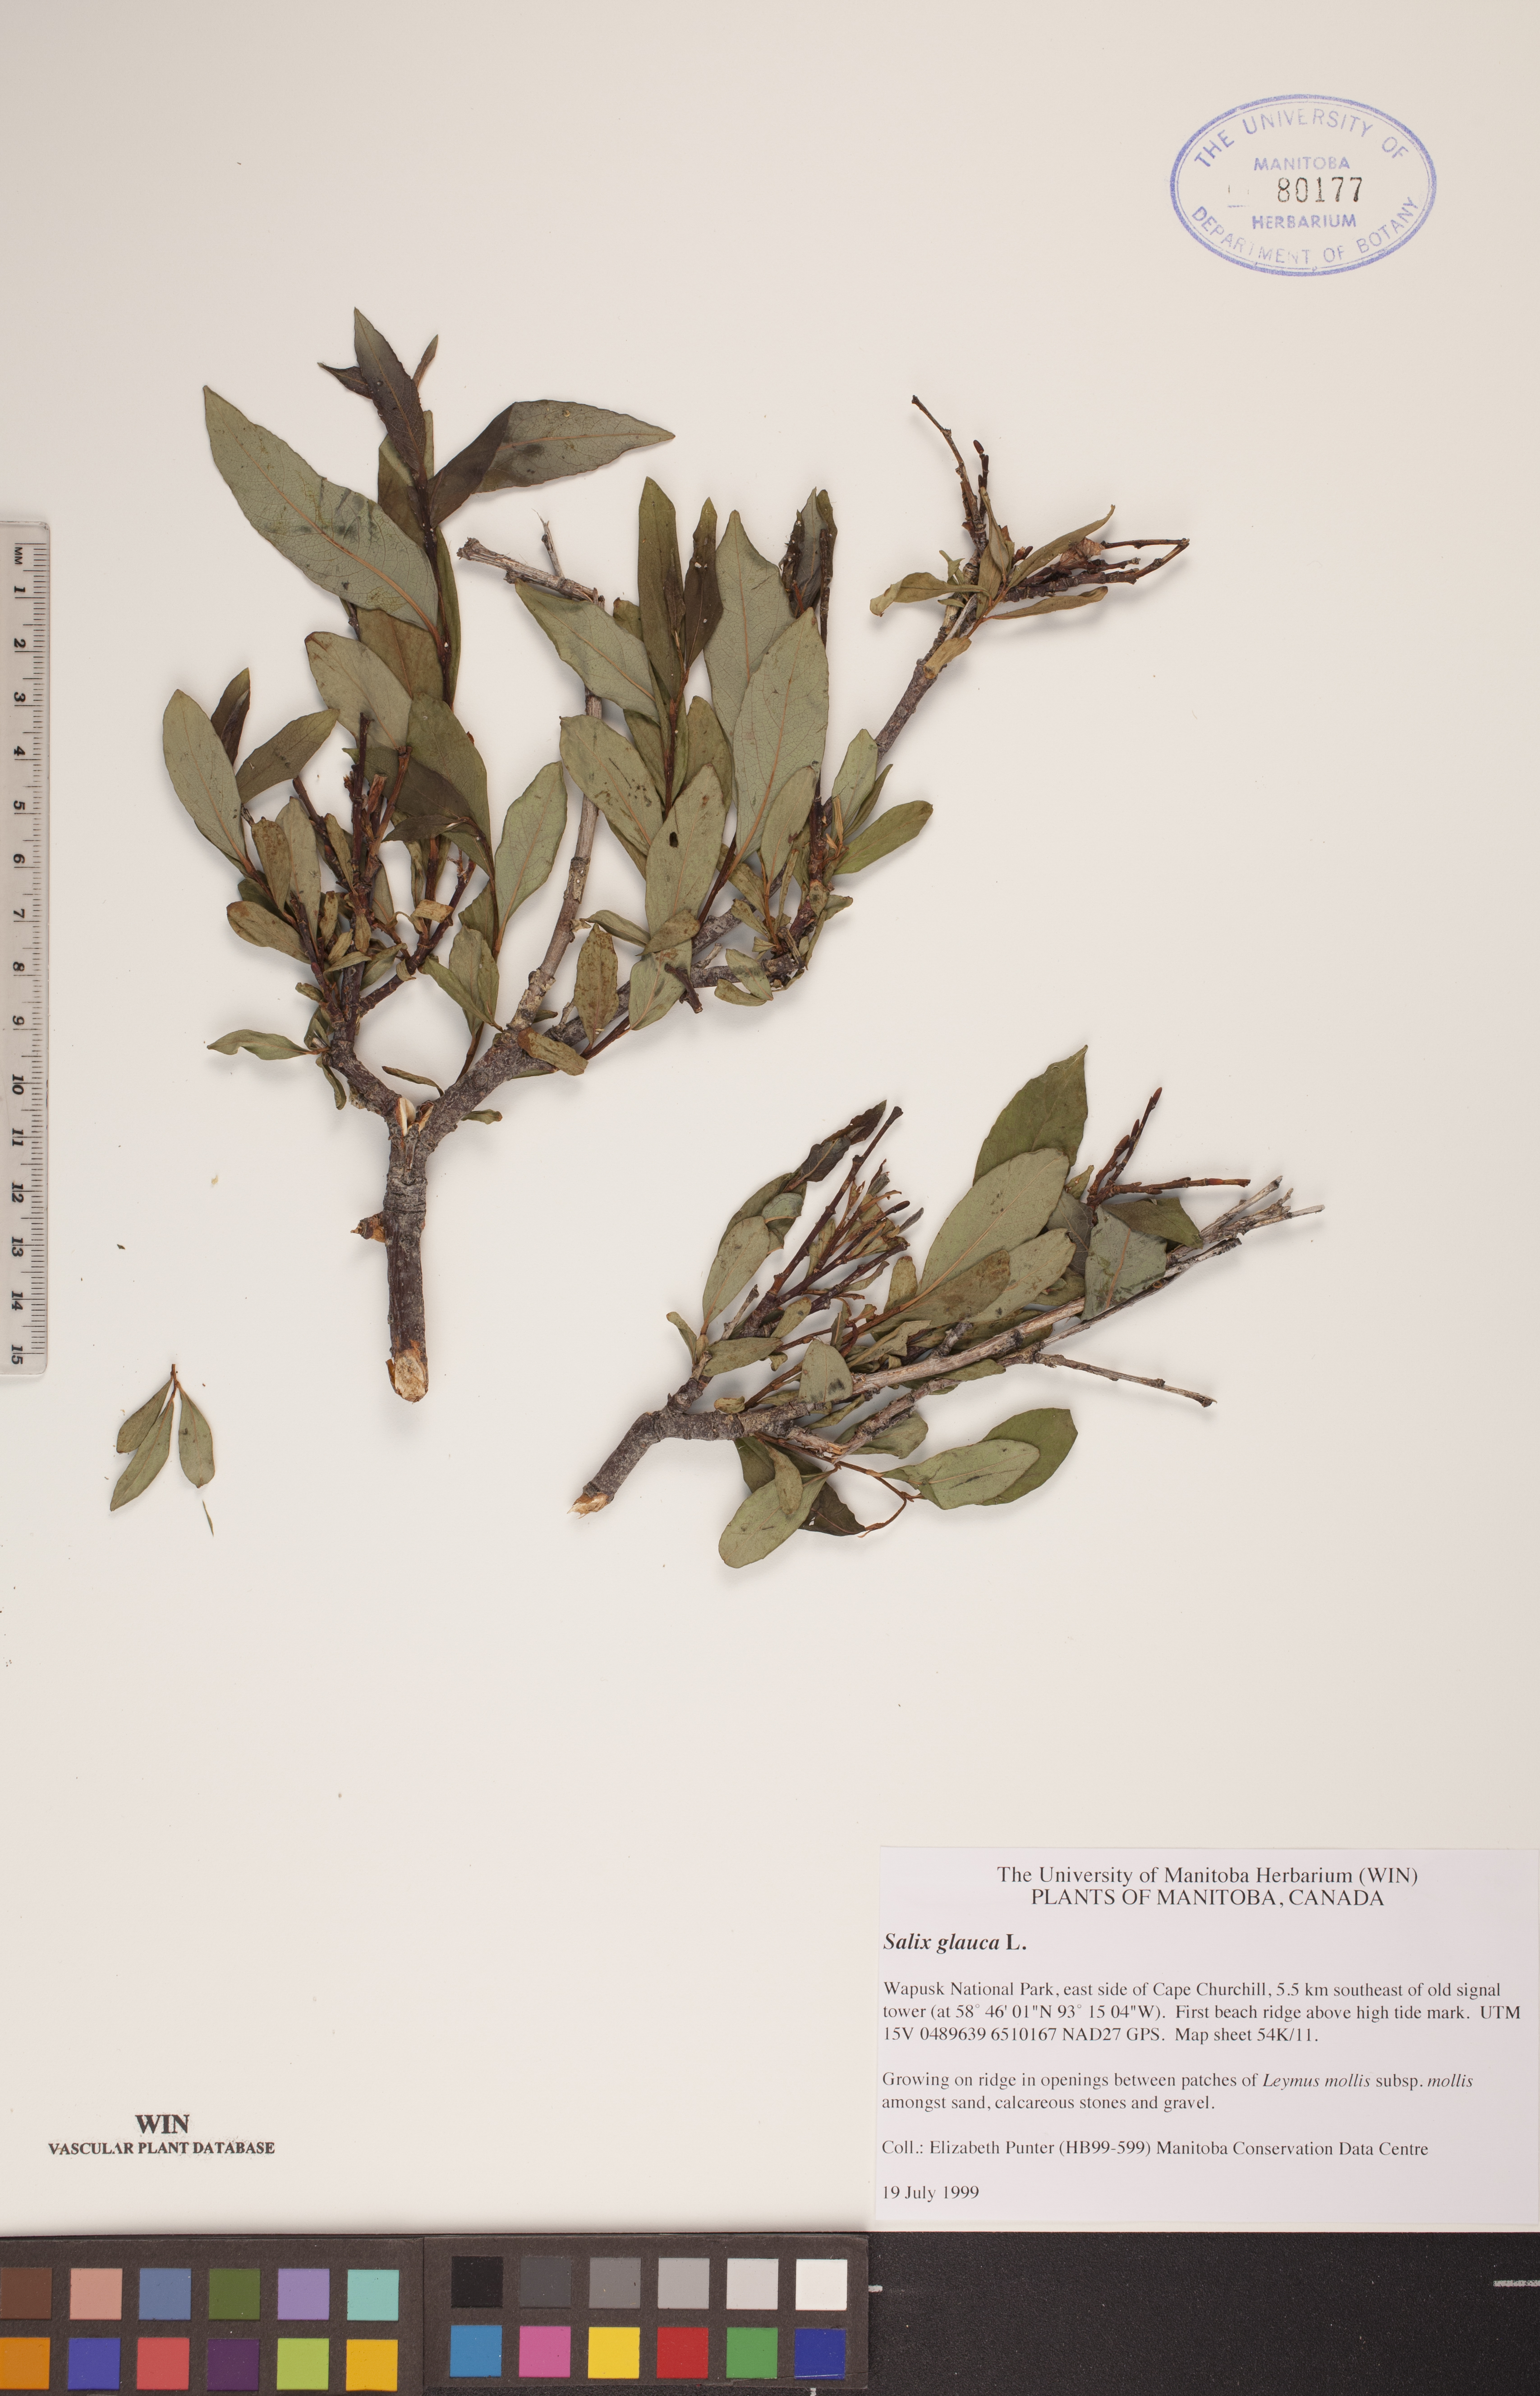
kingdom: Plantae
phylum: Tracheophyta
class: Magnoliopsida
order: Malpighiales
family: Salicaceae
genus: Salix
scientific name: Salix glauca
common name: Glaucous willow
